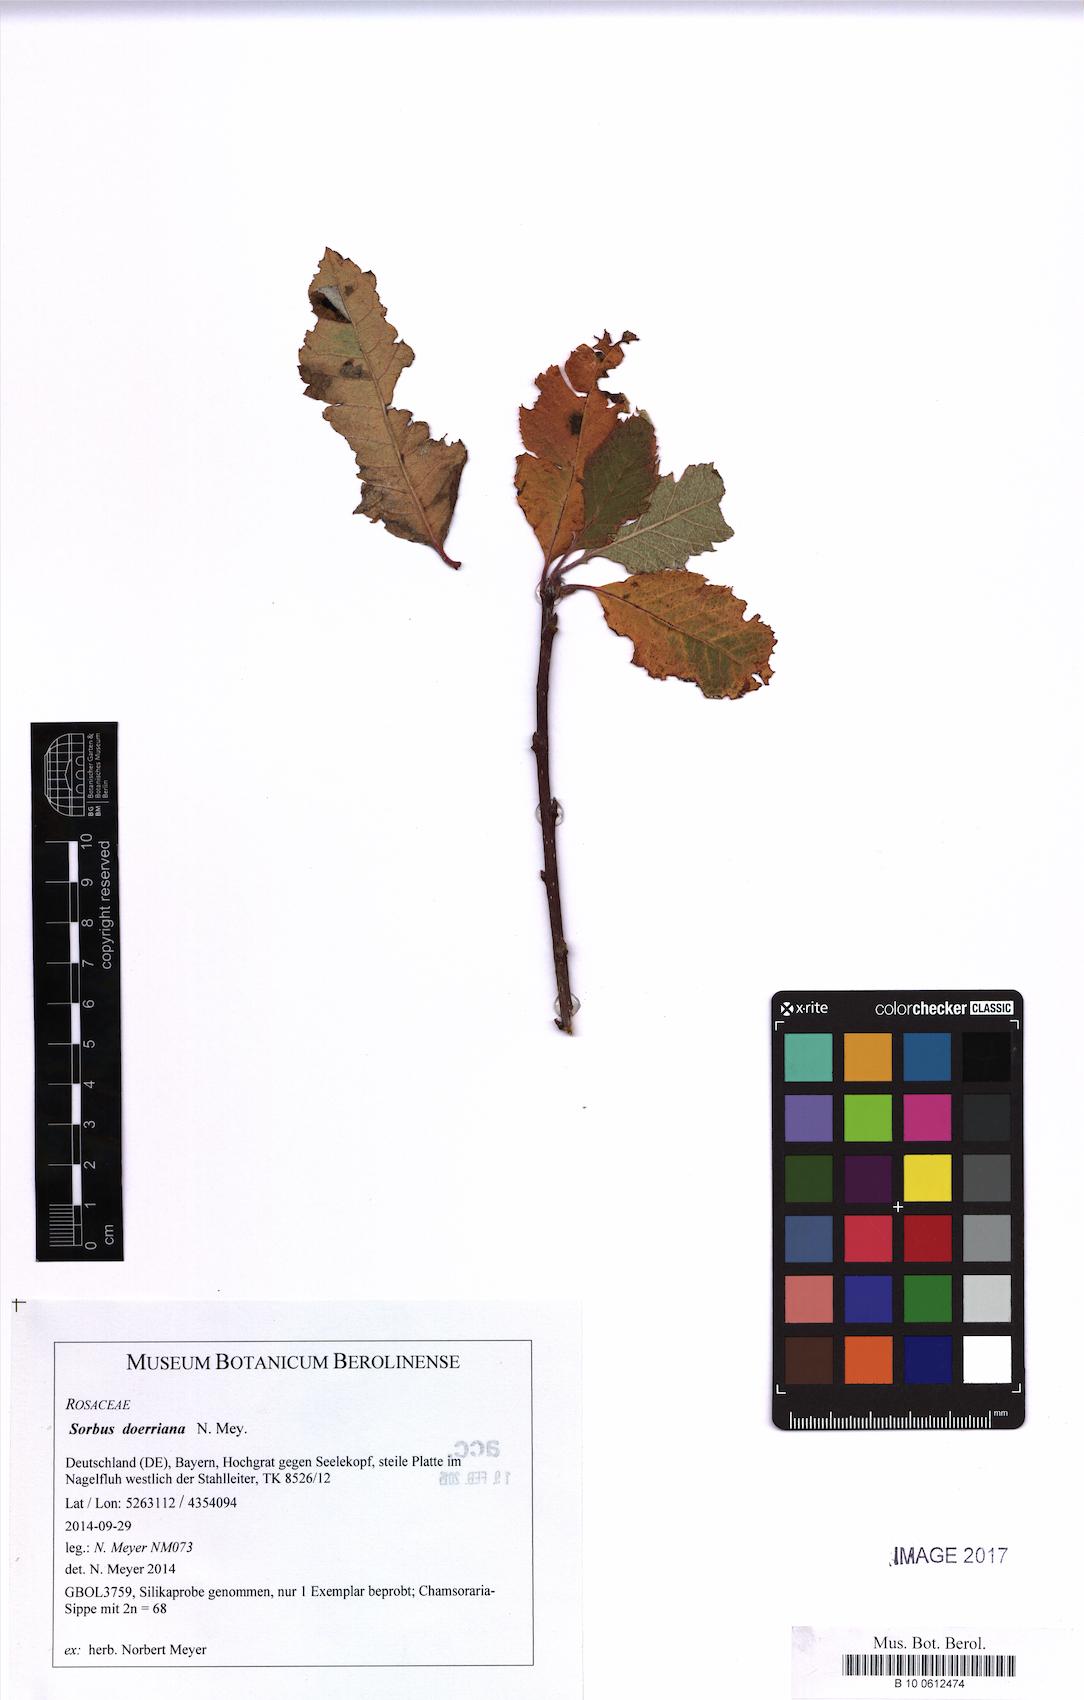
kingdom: Plantae
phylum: Tracheophyta
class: Magnoliopsida
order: Rosales
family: Rosaceae
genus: Normeyera
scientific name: Normeyera doerriana
